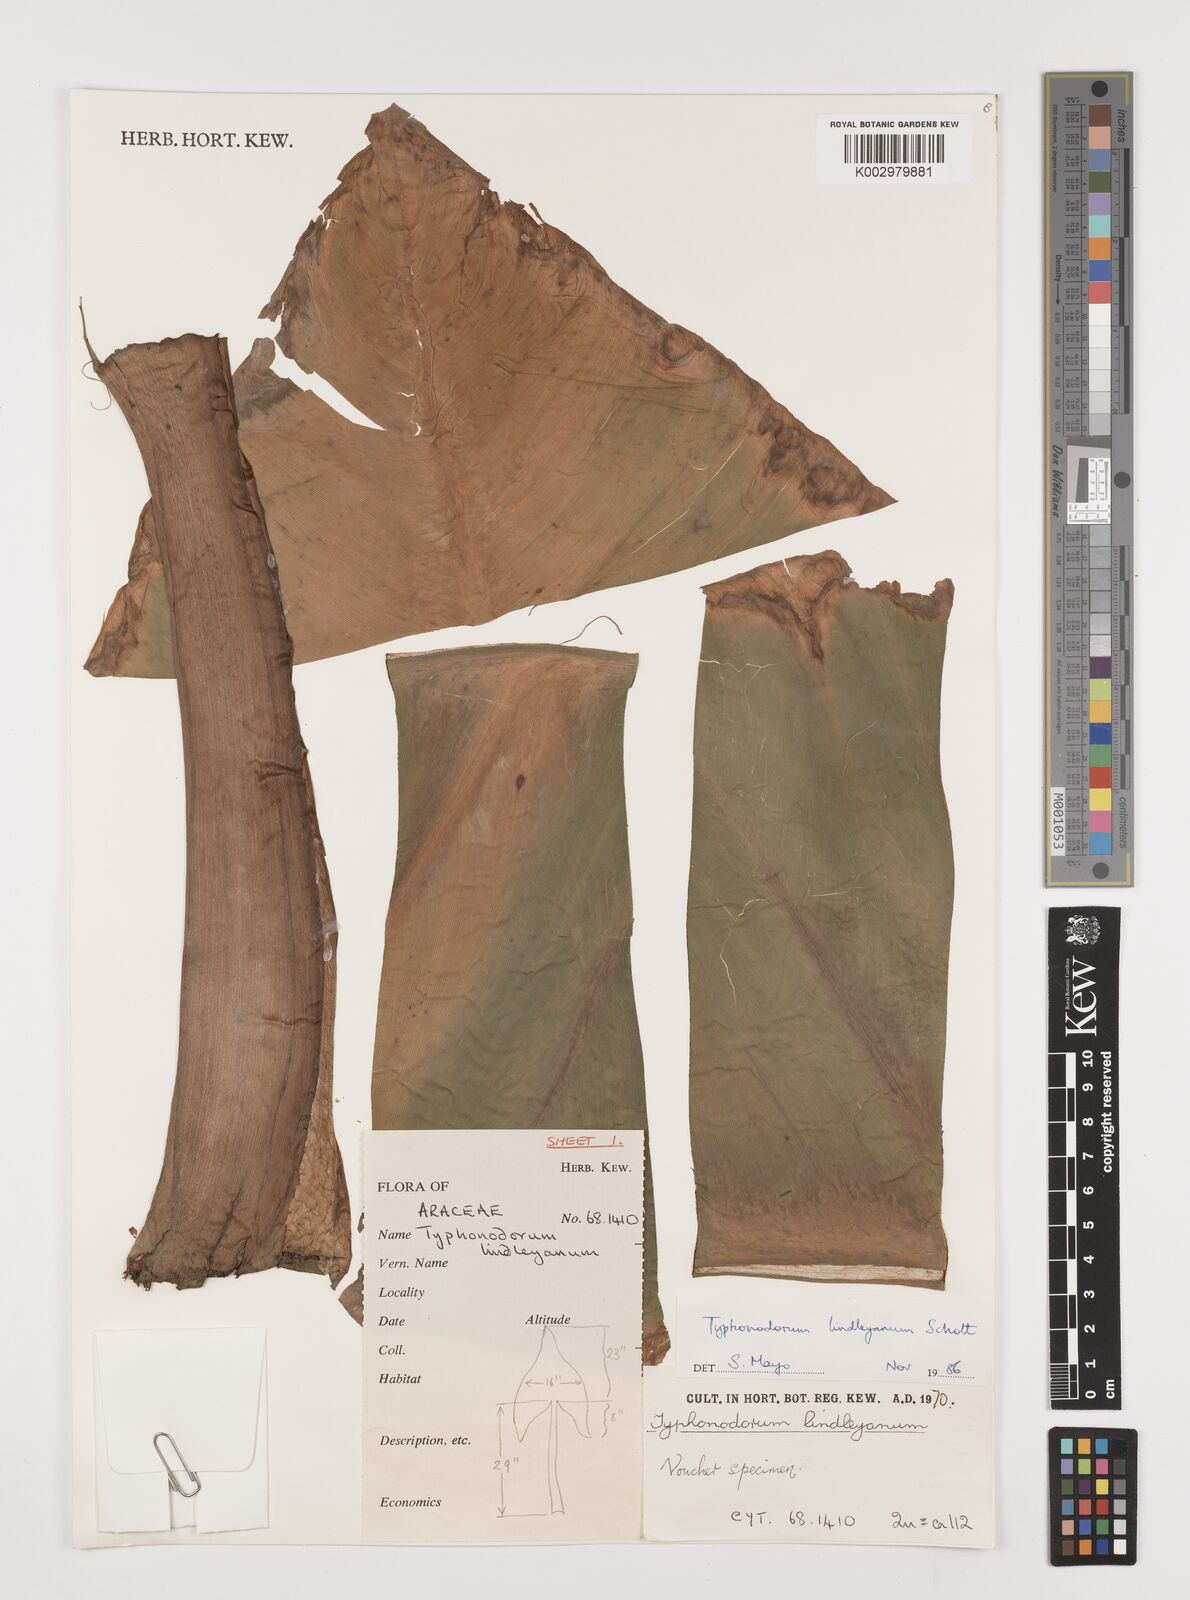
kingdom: Plantae
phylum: Tracheophyta
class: Liliopsida
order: Alismatales
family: Araceae
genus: Typhonodorum
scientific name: Typhonodorum lindleyanum
